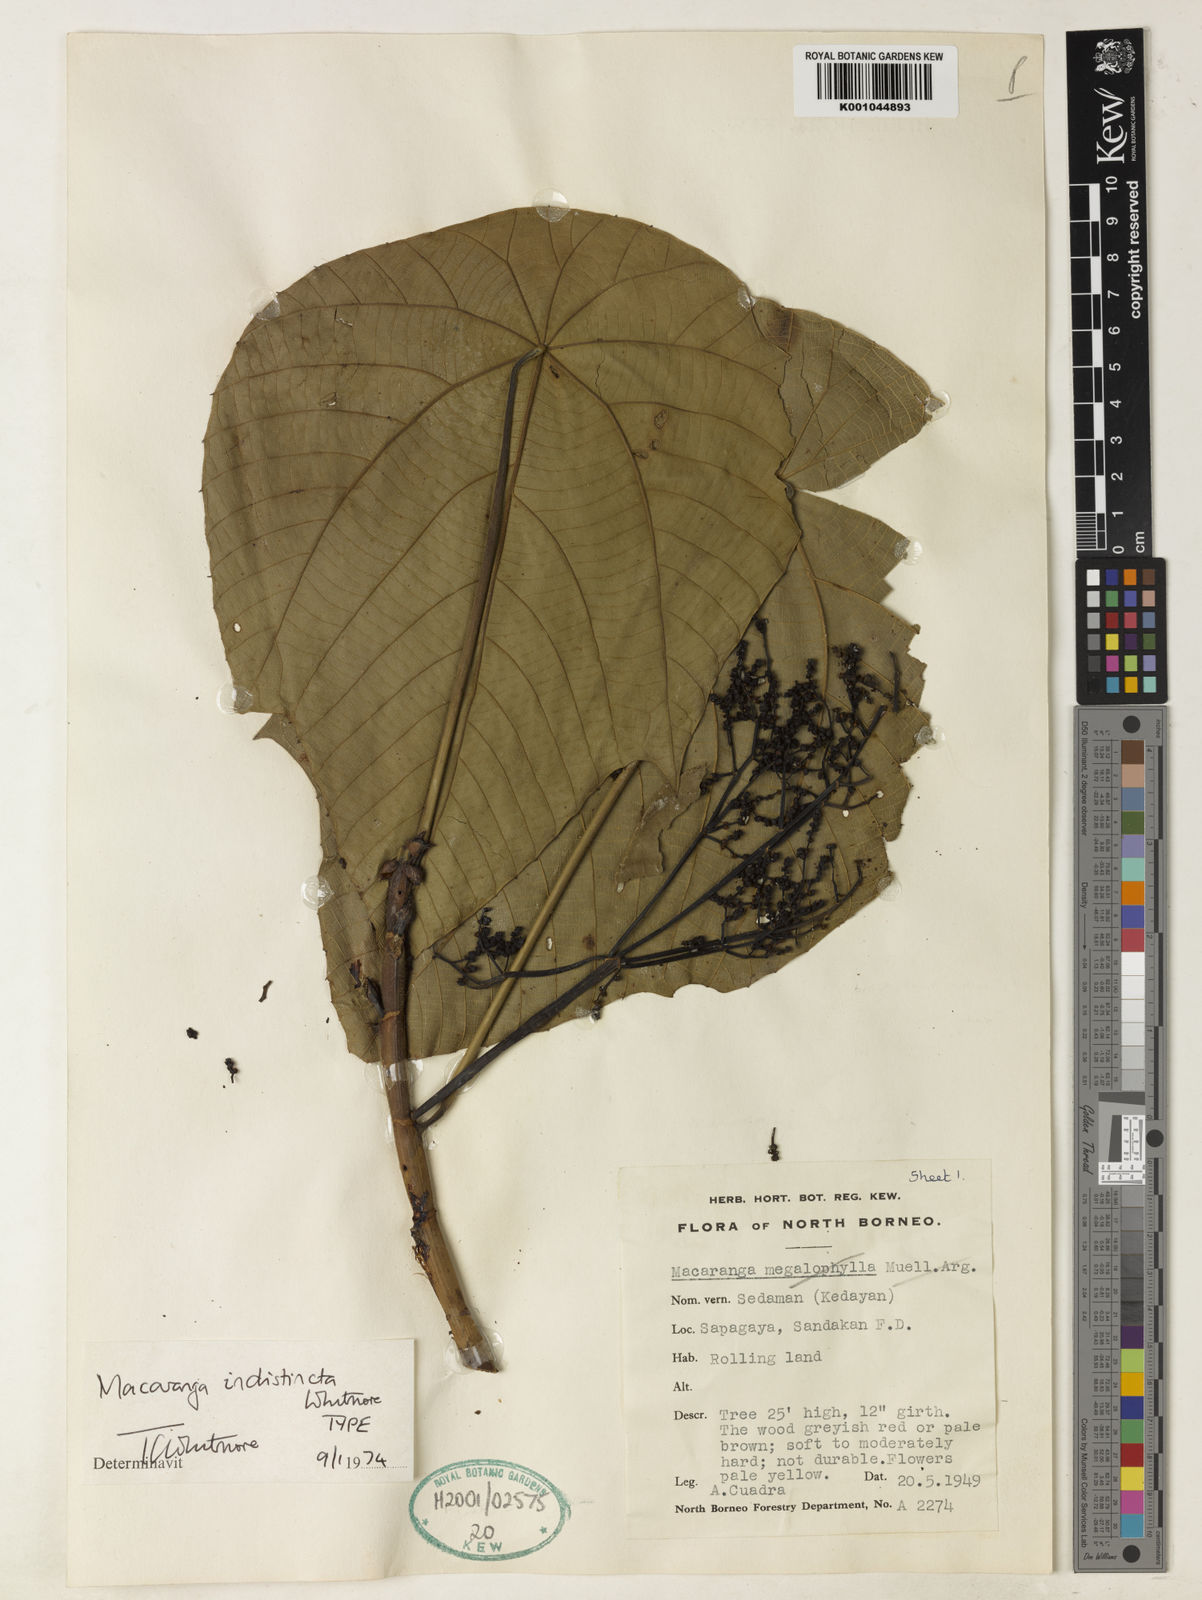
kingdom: Plantae
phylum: Tracheophyta
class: Magnoliopsida
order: Malpighiales
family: Euphorbiaceae
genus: Macaranga
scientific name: Macaranga indistincta
